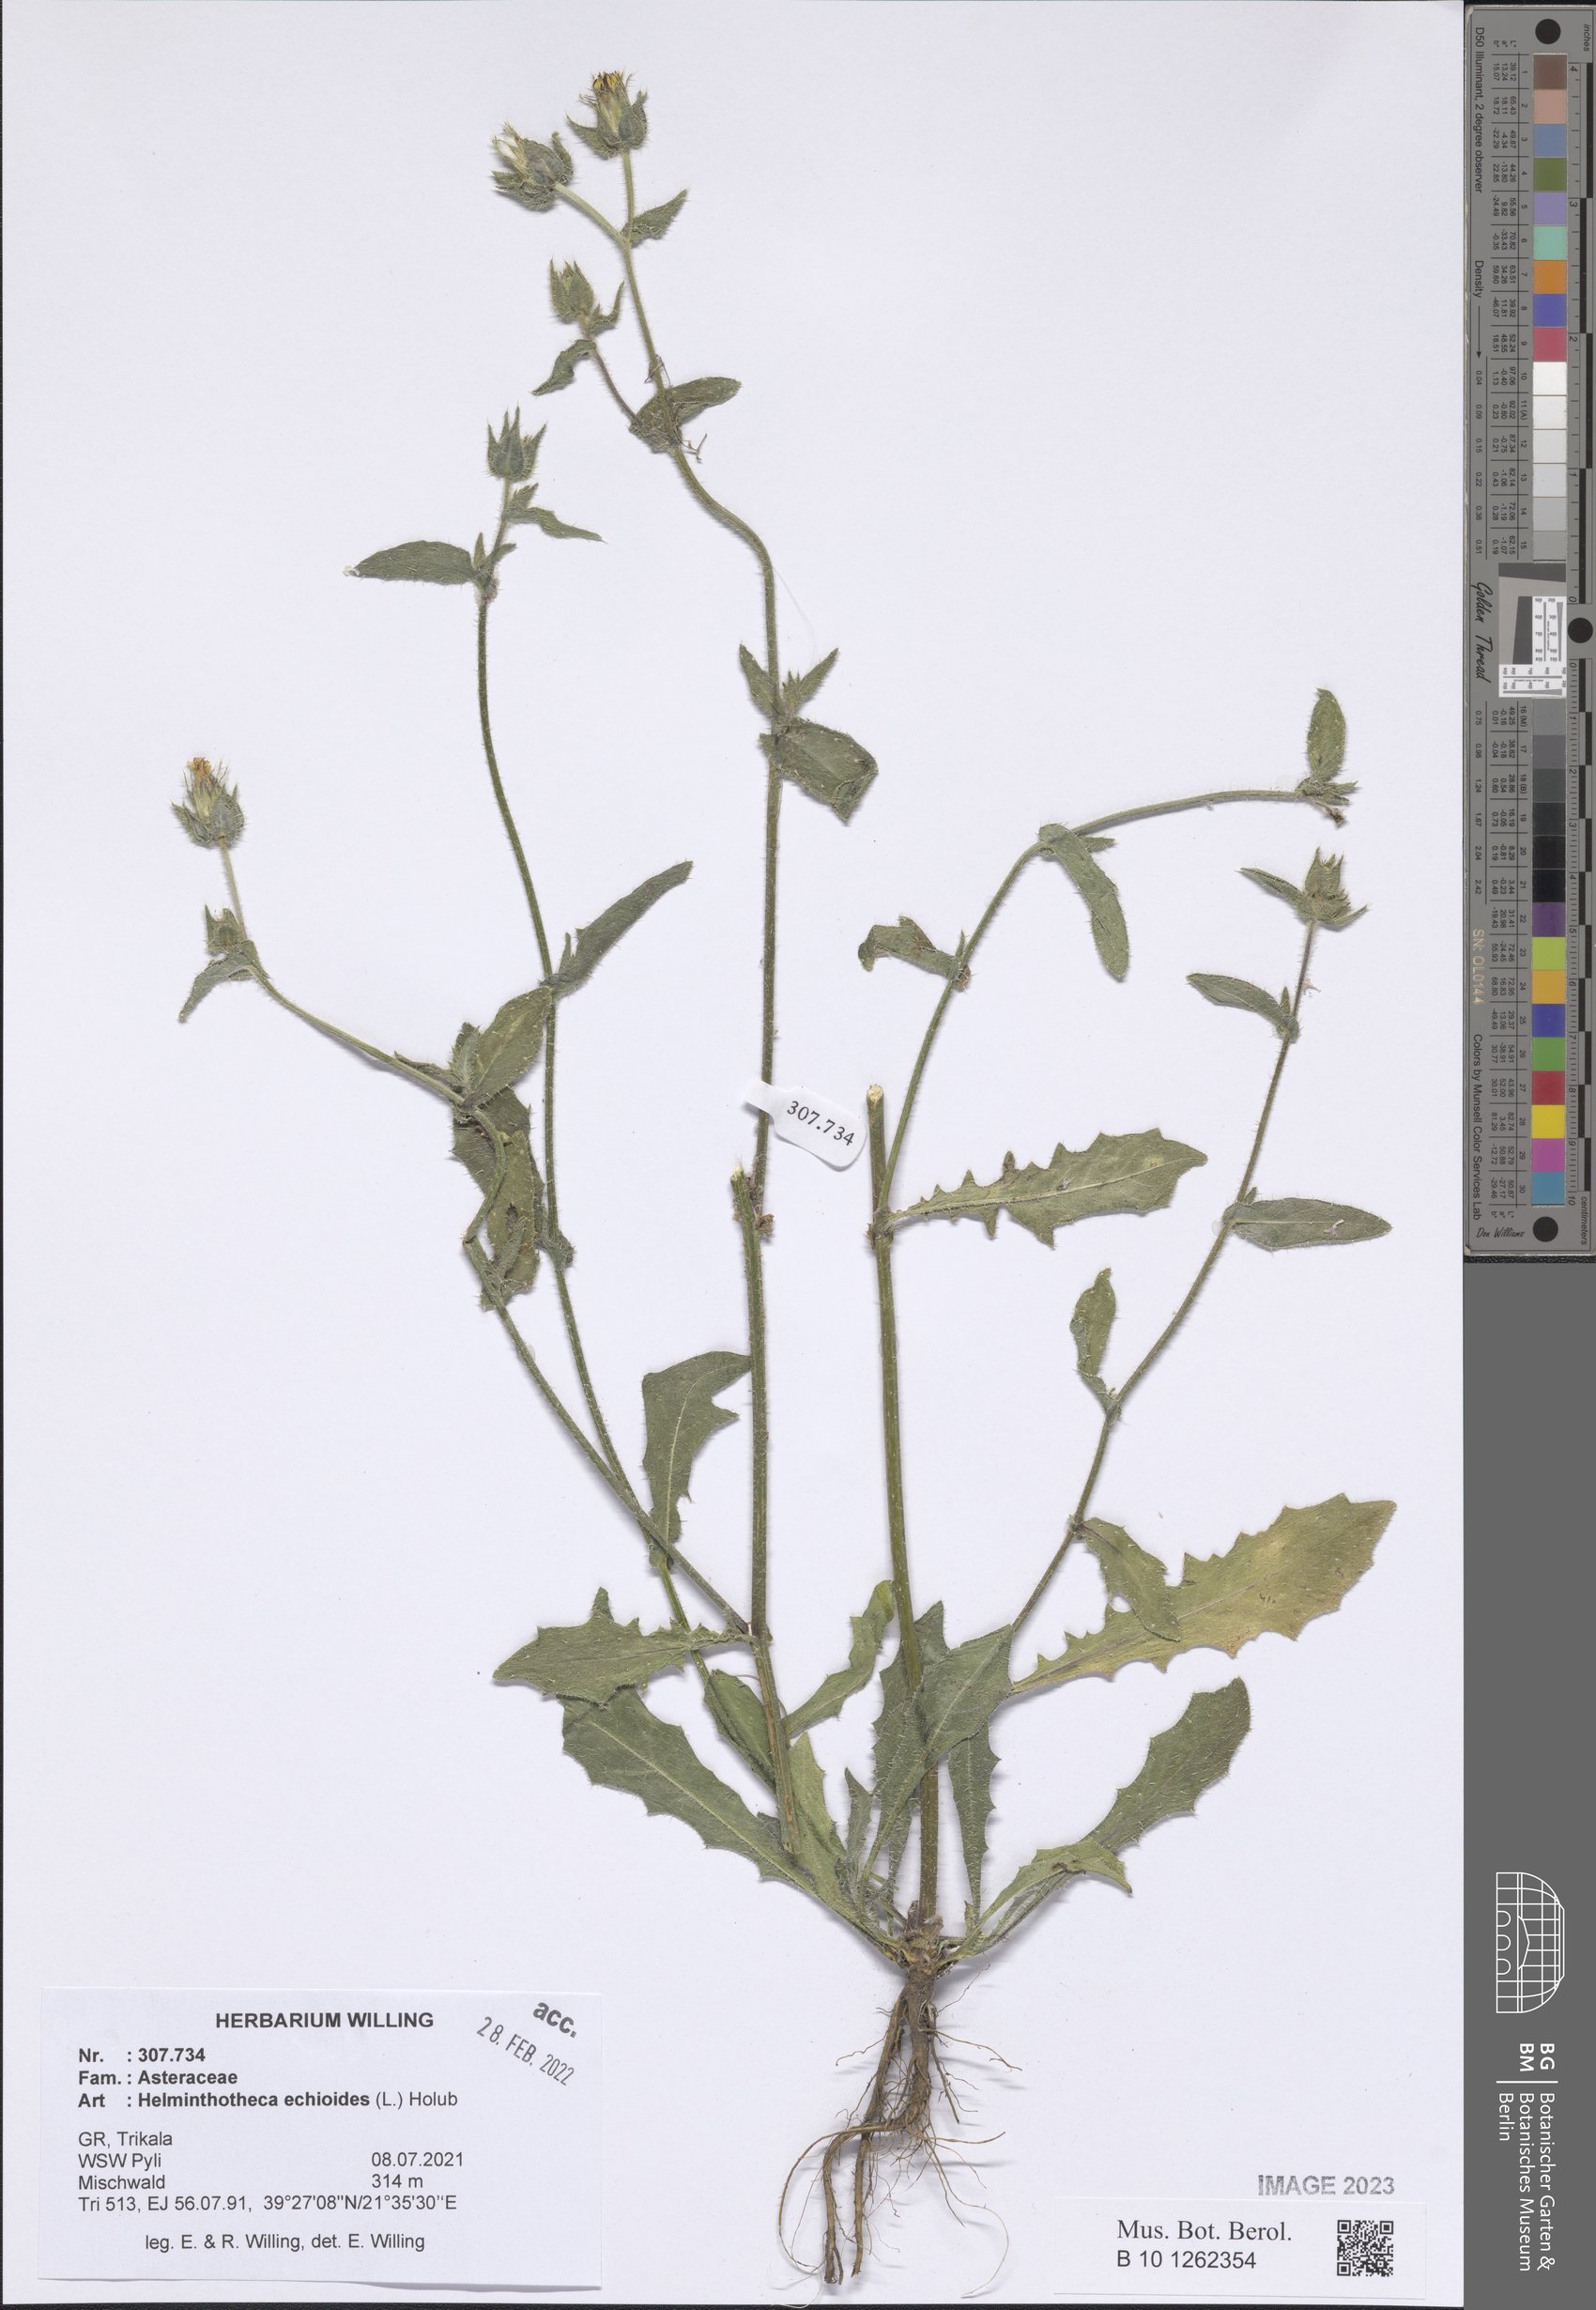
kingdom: Plantae
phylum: Tracheophyta
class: Magnoliopsida
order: Asterales
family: Asteraceae
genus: Helminthotheca
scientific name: Helminthotheca echioides
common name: Ox-tongue
